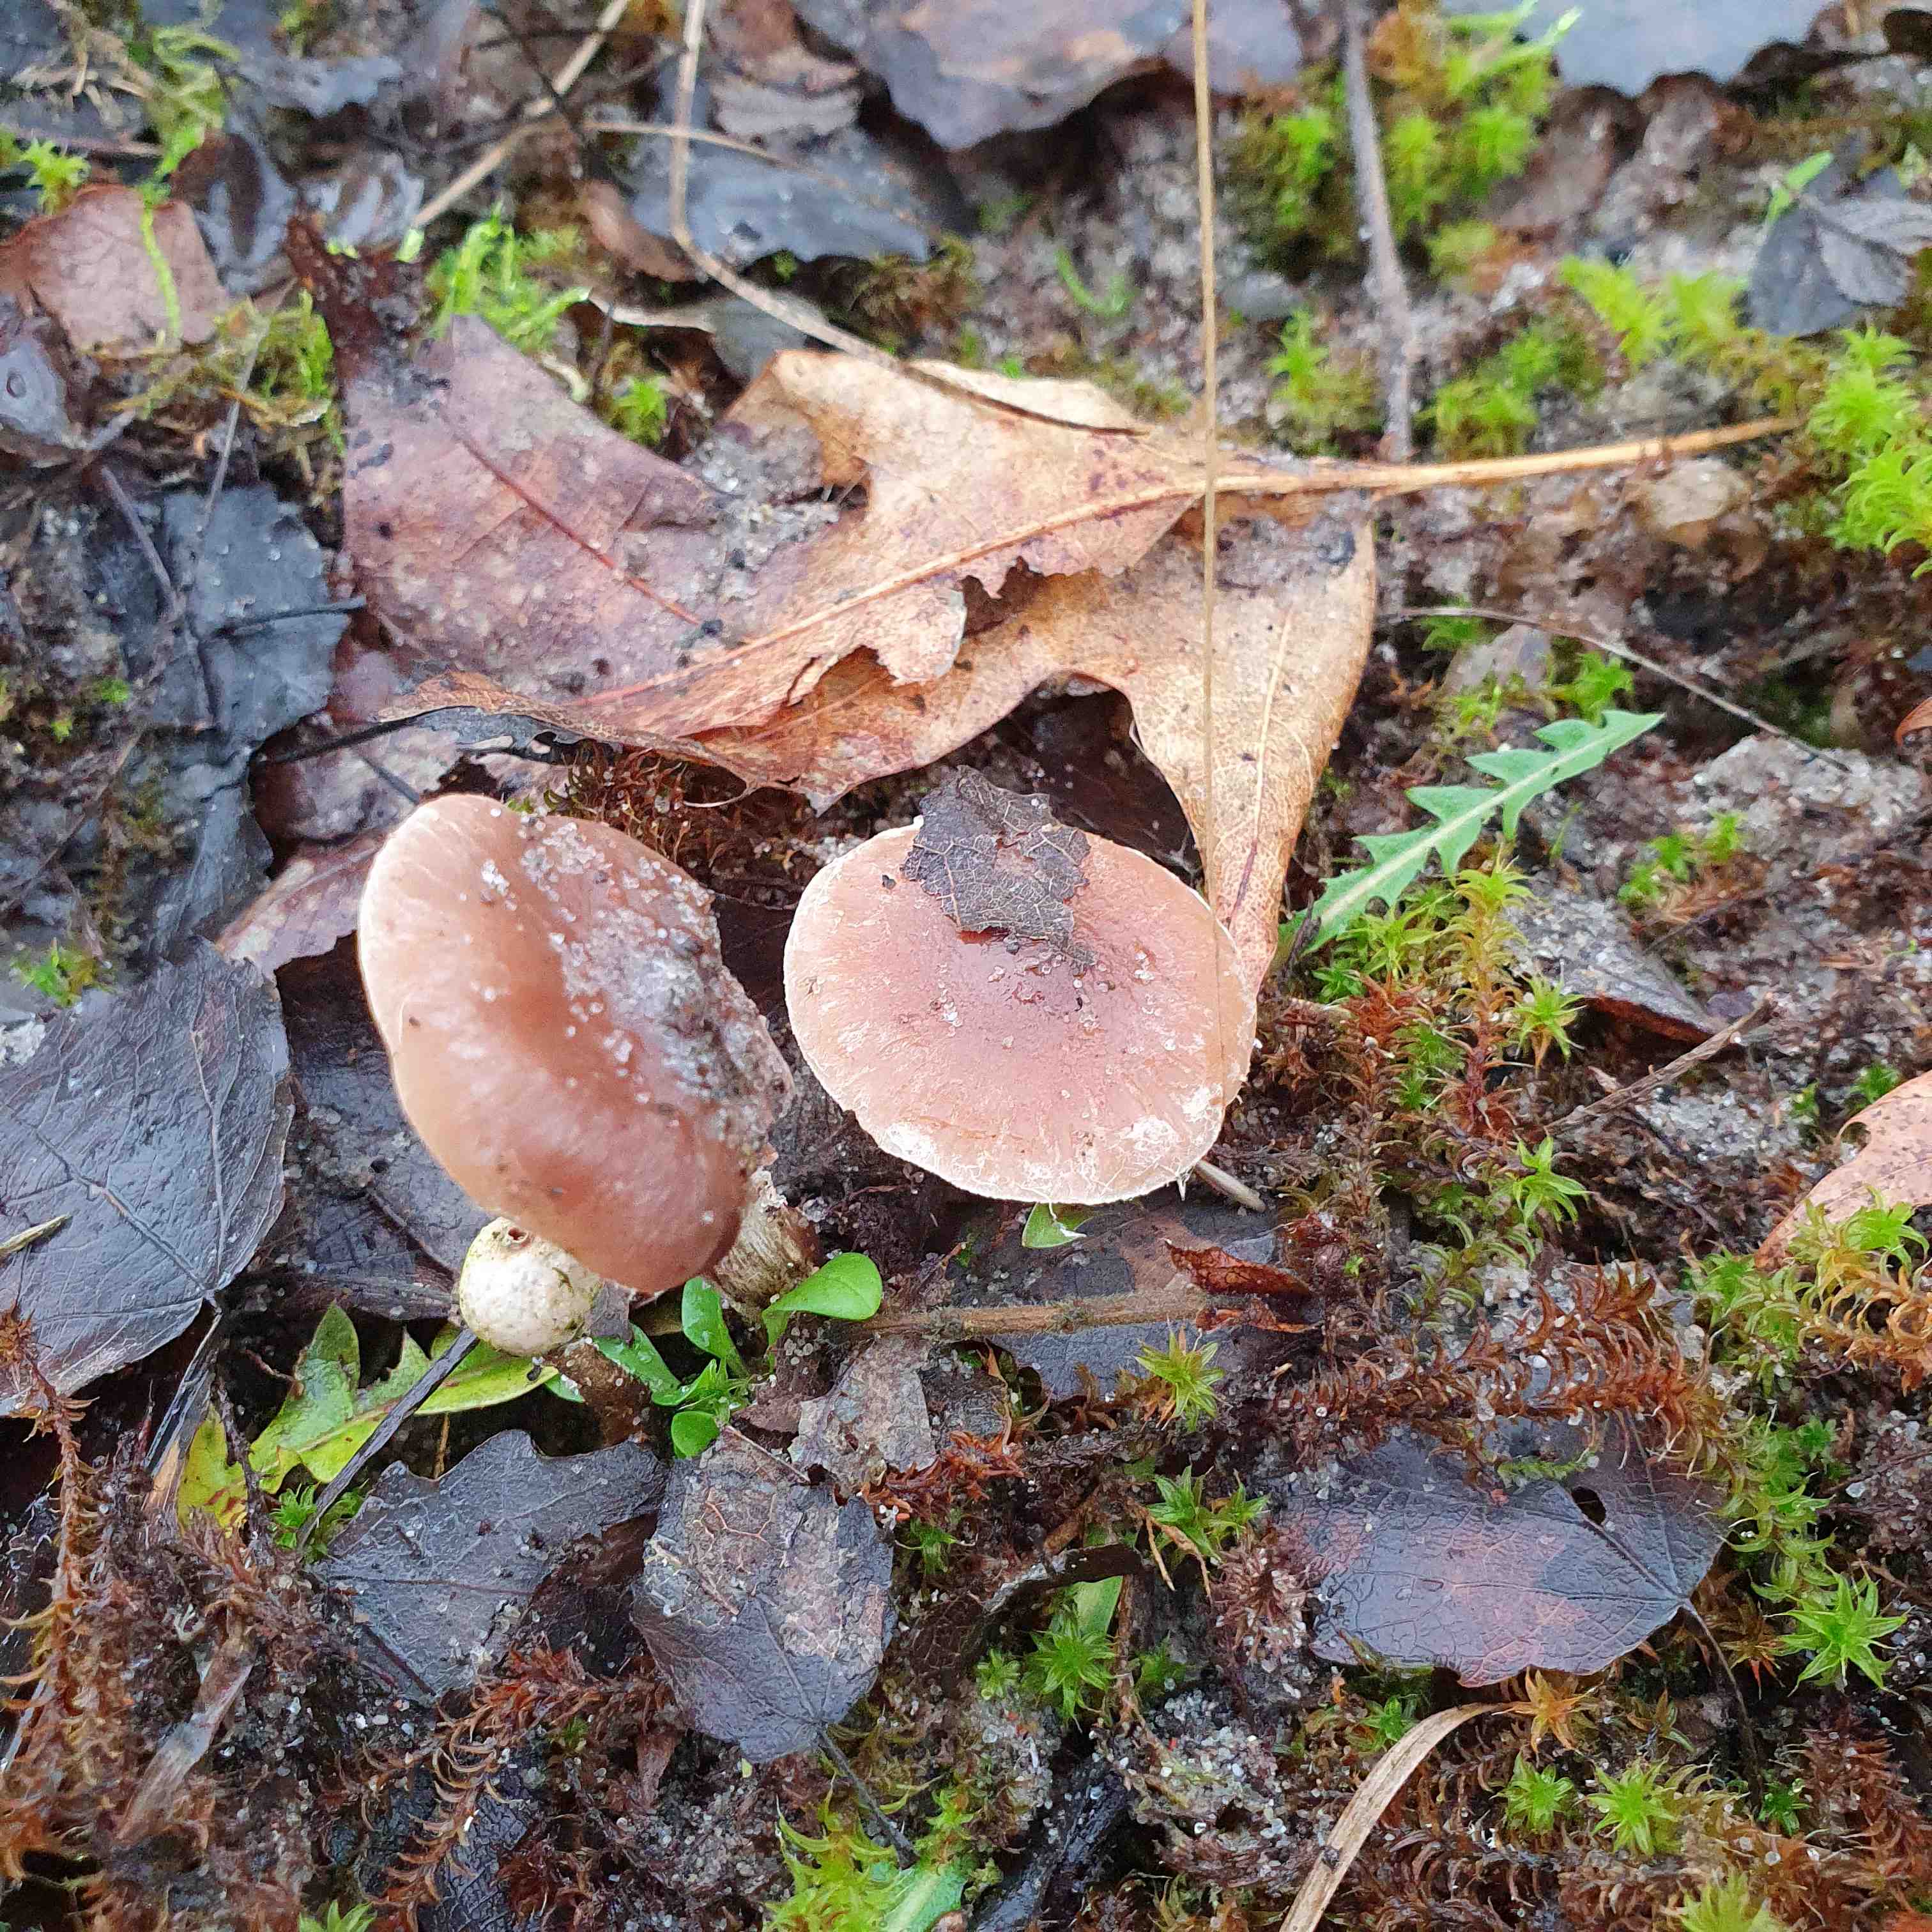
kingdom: Fungi
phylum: Basidiomycota
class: Agaricomycetes
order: Agaricales
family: Hymenogastraceae
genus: Hebeloma
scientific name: Hebeloma
